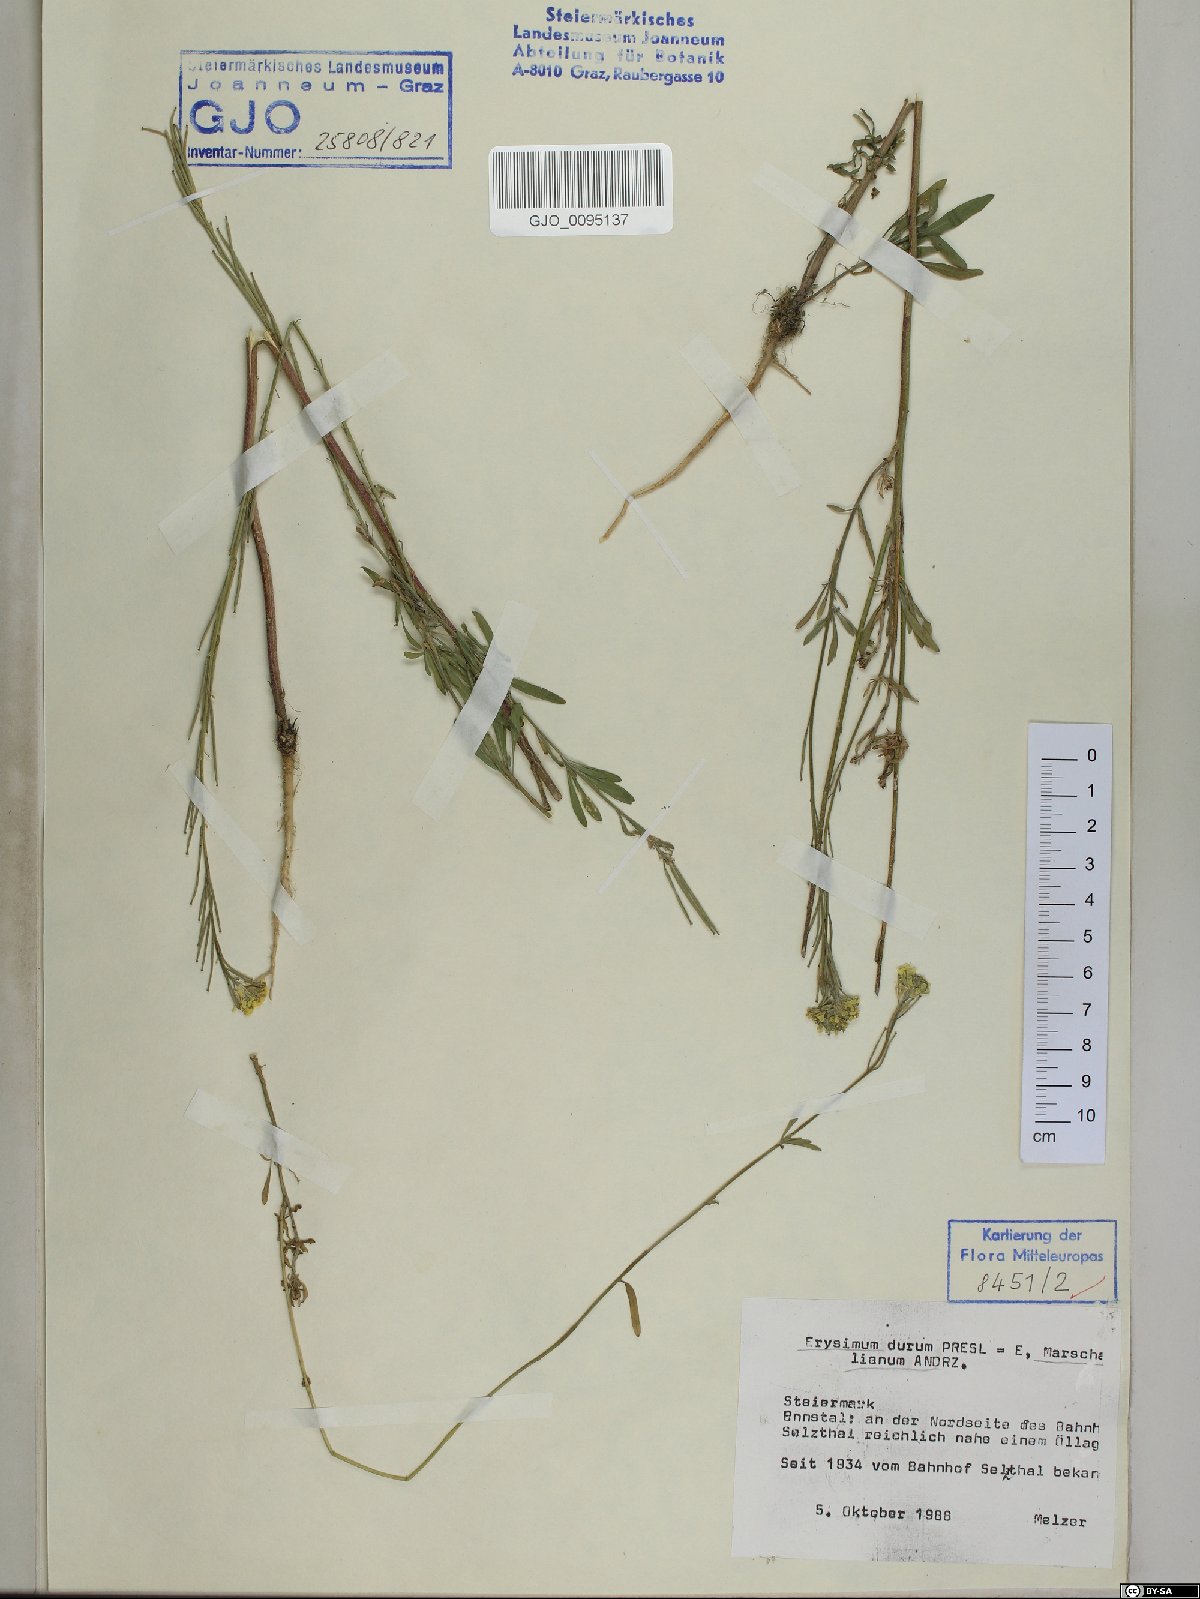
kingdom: Plantae
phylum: Tracheophyta
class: Magnoliopsida
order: Brassicales
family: Brassicaceae
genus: Erysimum
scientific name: Erysimum marschallianum
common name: Hard wallflower
